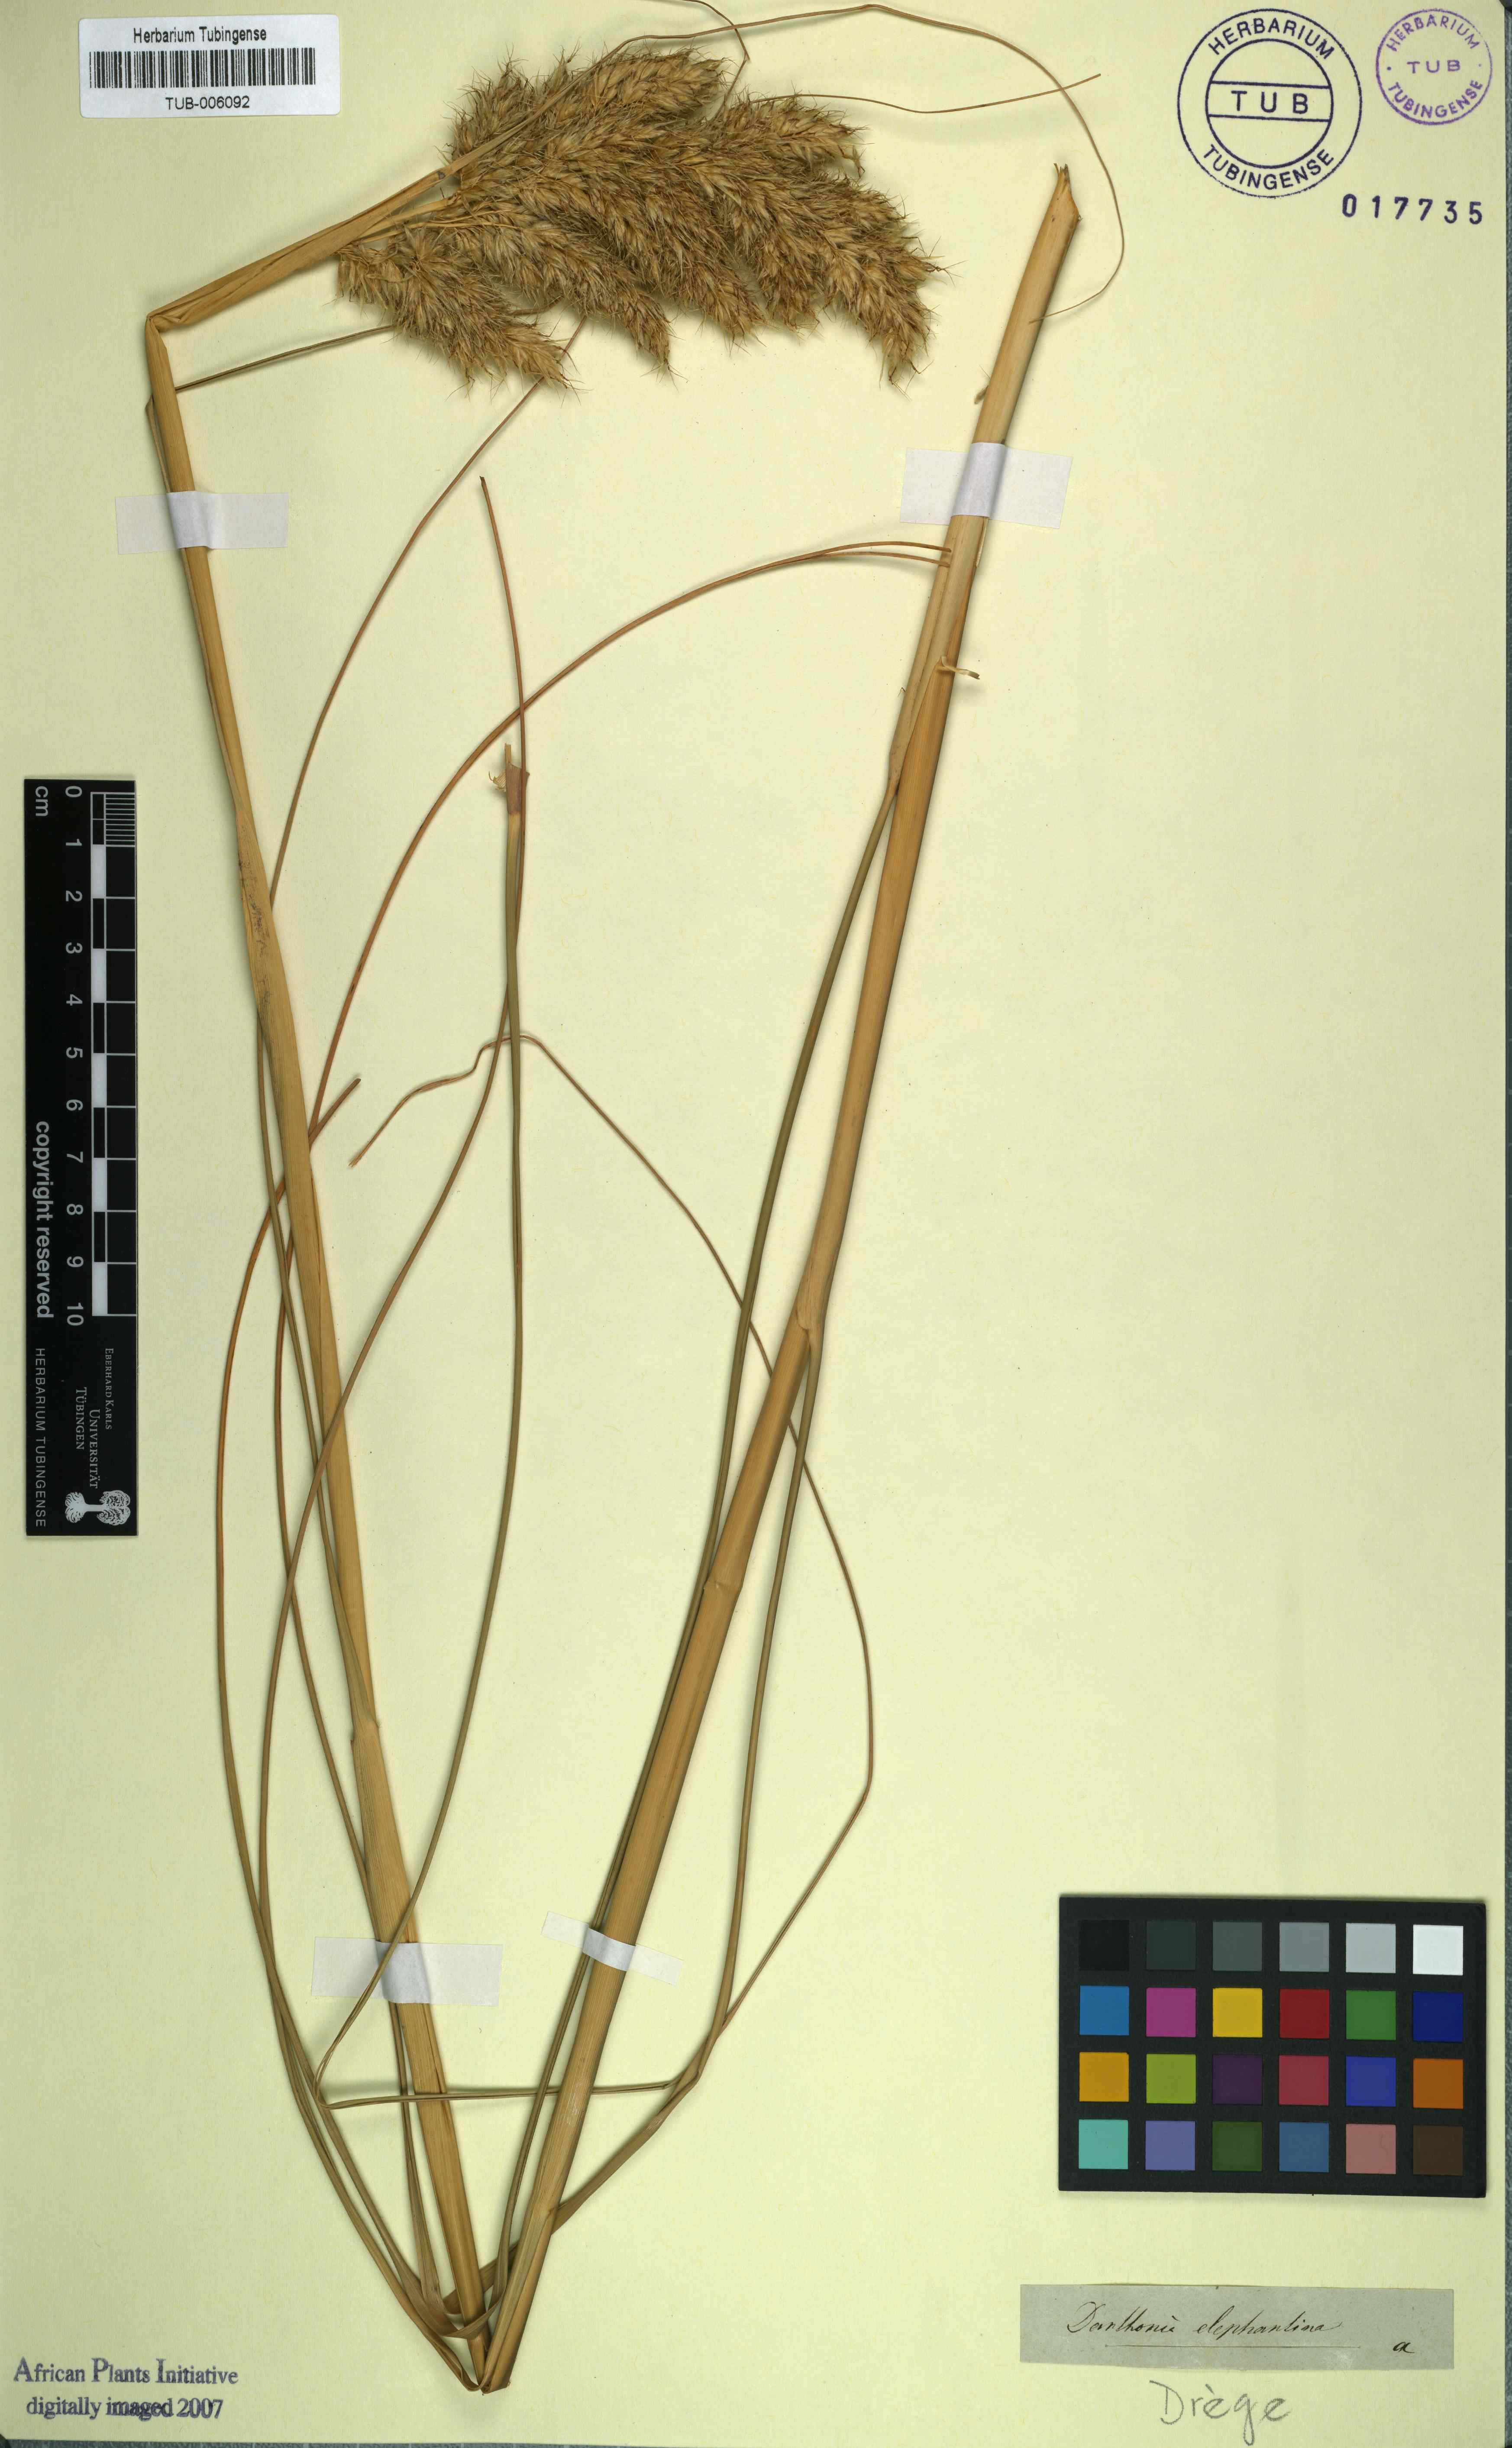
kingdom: Plantae
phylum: Tracheophyta
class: Liliopsida
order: Poales
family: Poaceae
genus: Capeochloa
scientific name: Capeochloa arundinacea
